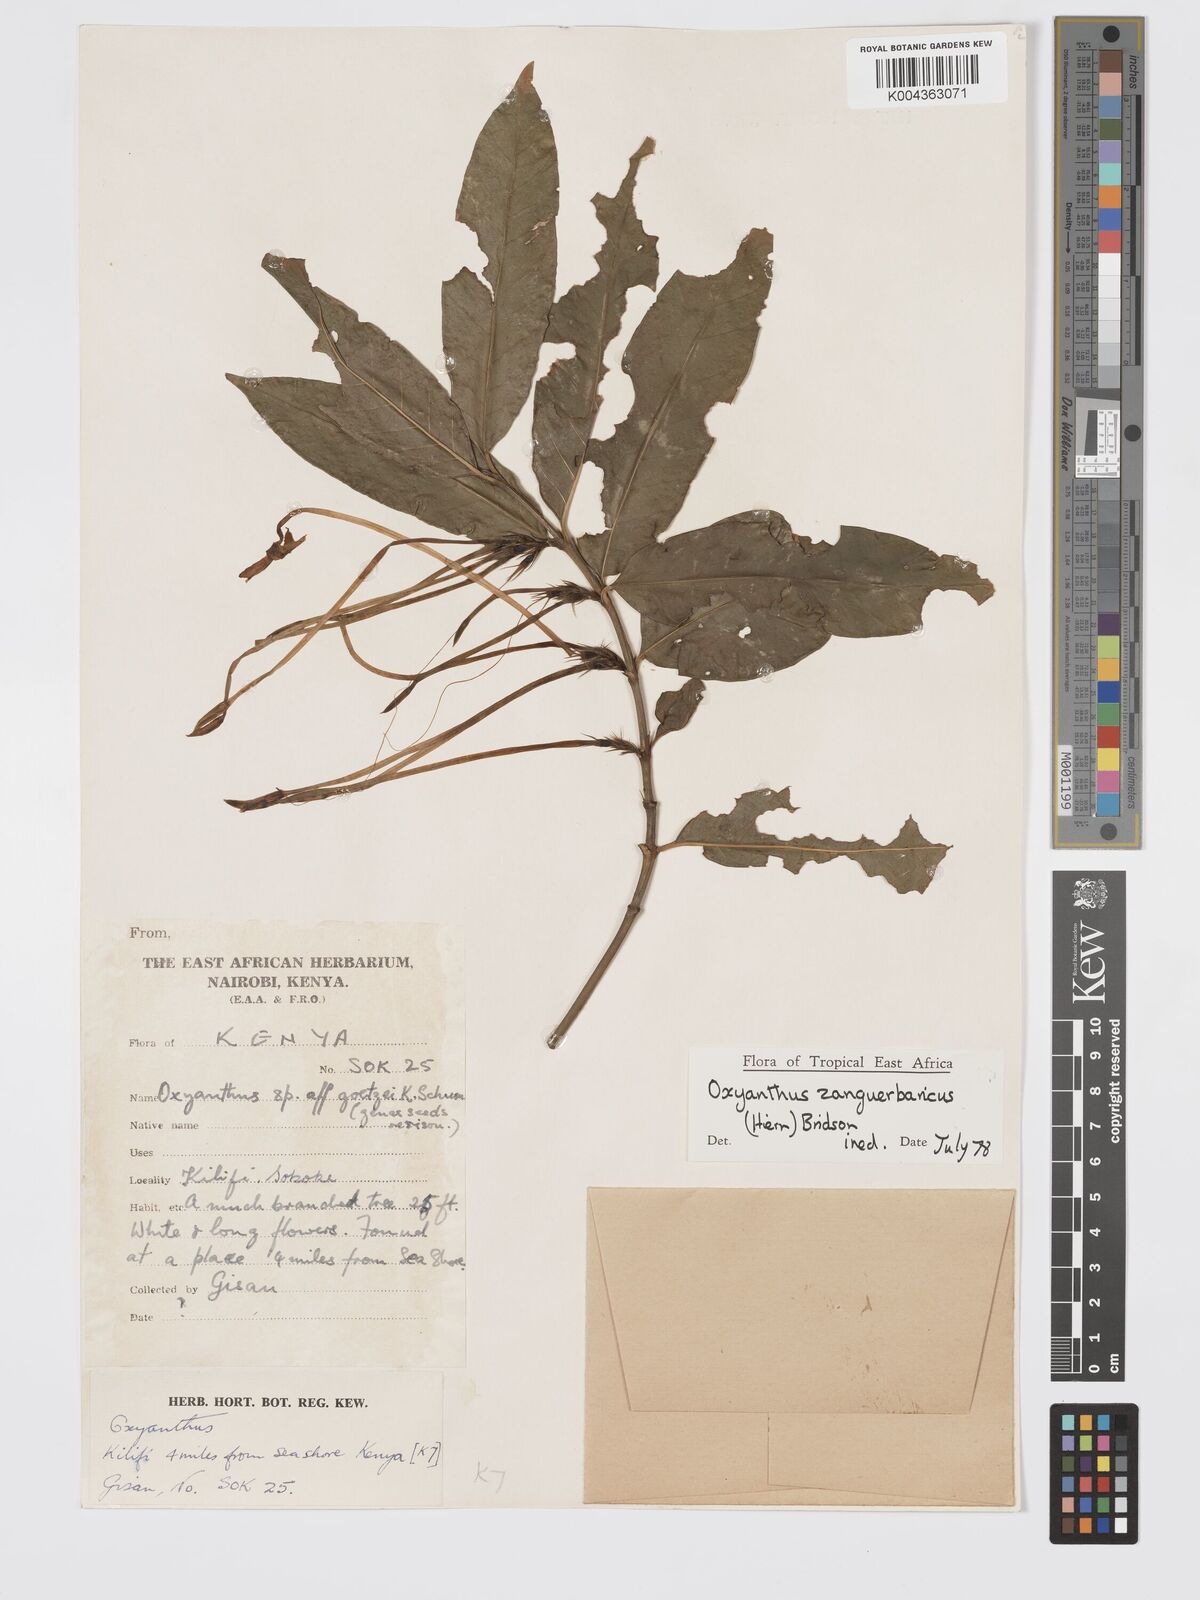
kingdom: Plantae
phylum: Tracheophyta
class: Magnoliopsida
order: Gentianales
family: Rubiaceae
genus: Oxyanthus
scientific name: Oxyanthus zanguebaricus
